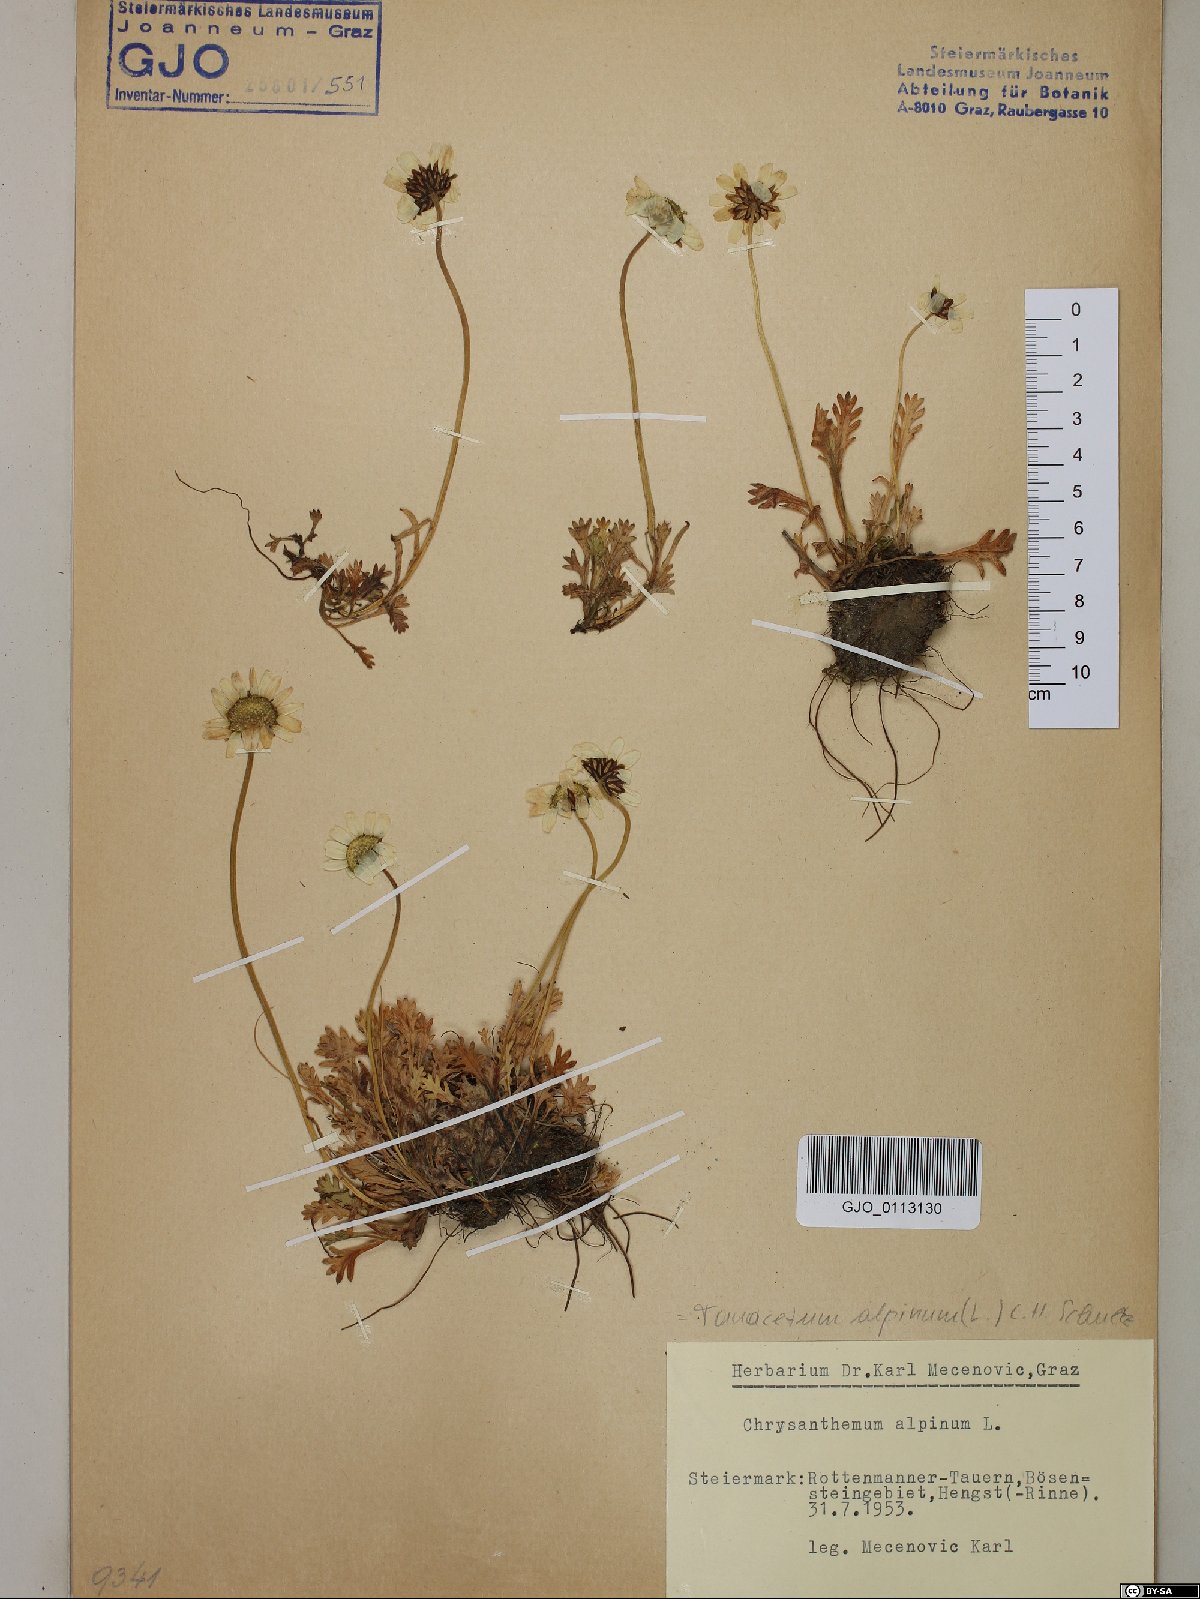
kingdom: Plantae
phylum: Tracheophyta
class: Magnoliopsida
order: Asterales
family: Asteraceae
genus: Leucanthemopsis
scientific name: Leucanthemopsis alpina
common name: Alpine moon daisy
